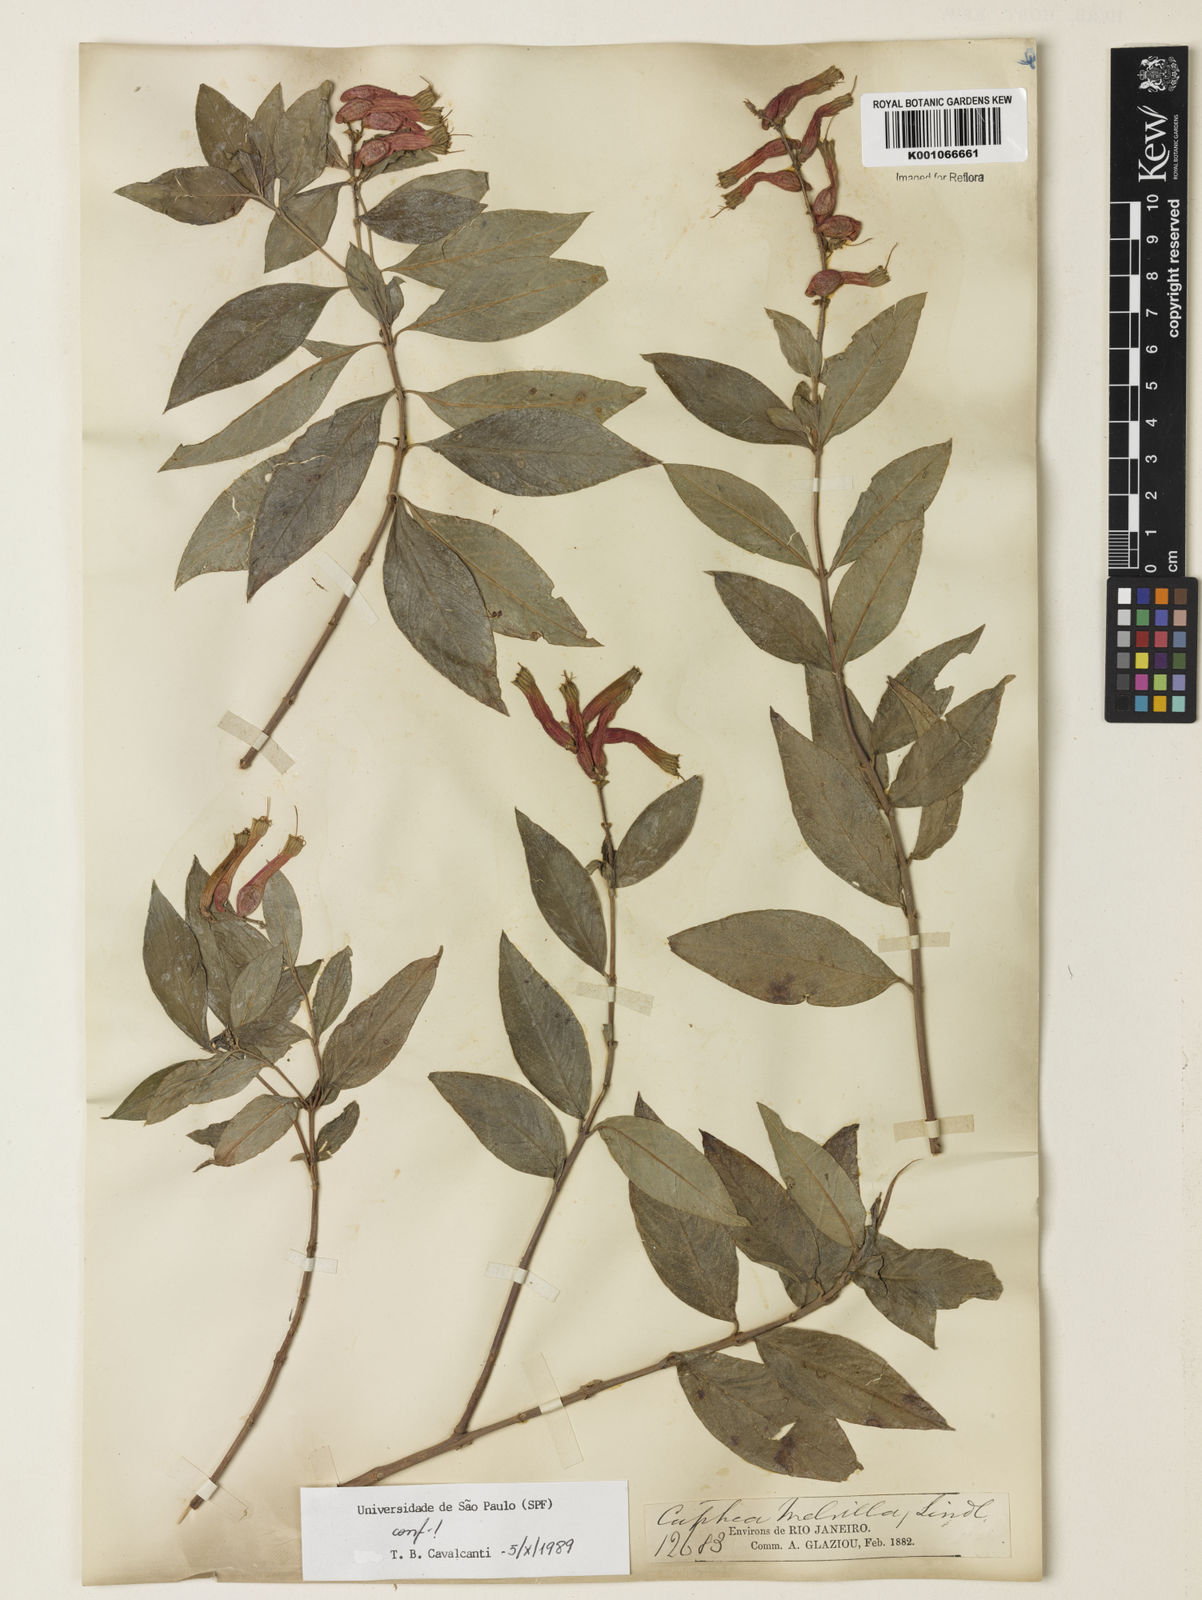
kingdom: Plantae
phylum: Tracheophyta
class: Magnoliopsida
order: Myrtales
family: Lythraceae
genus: Cuphea
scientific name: Cuphea melvilla
